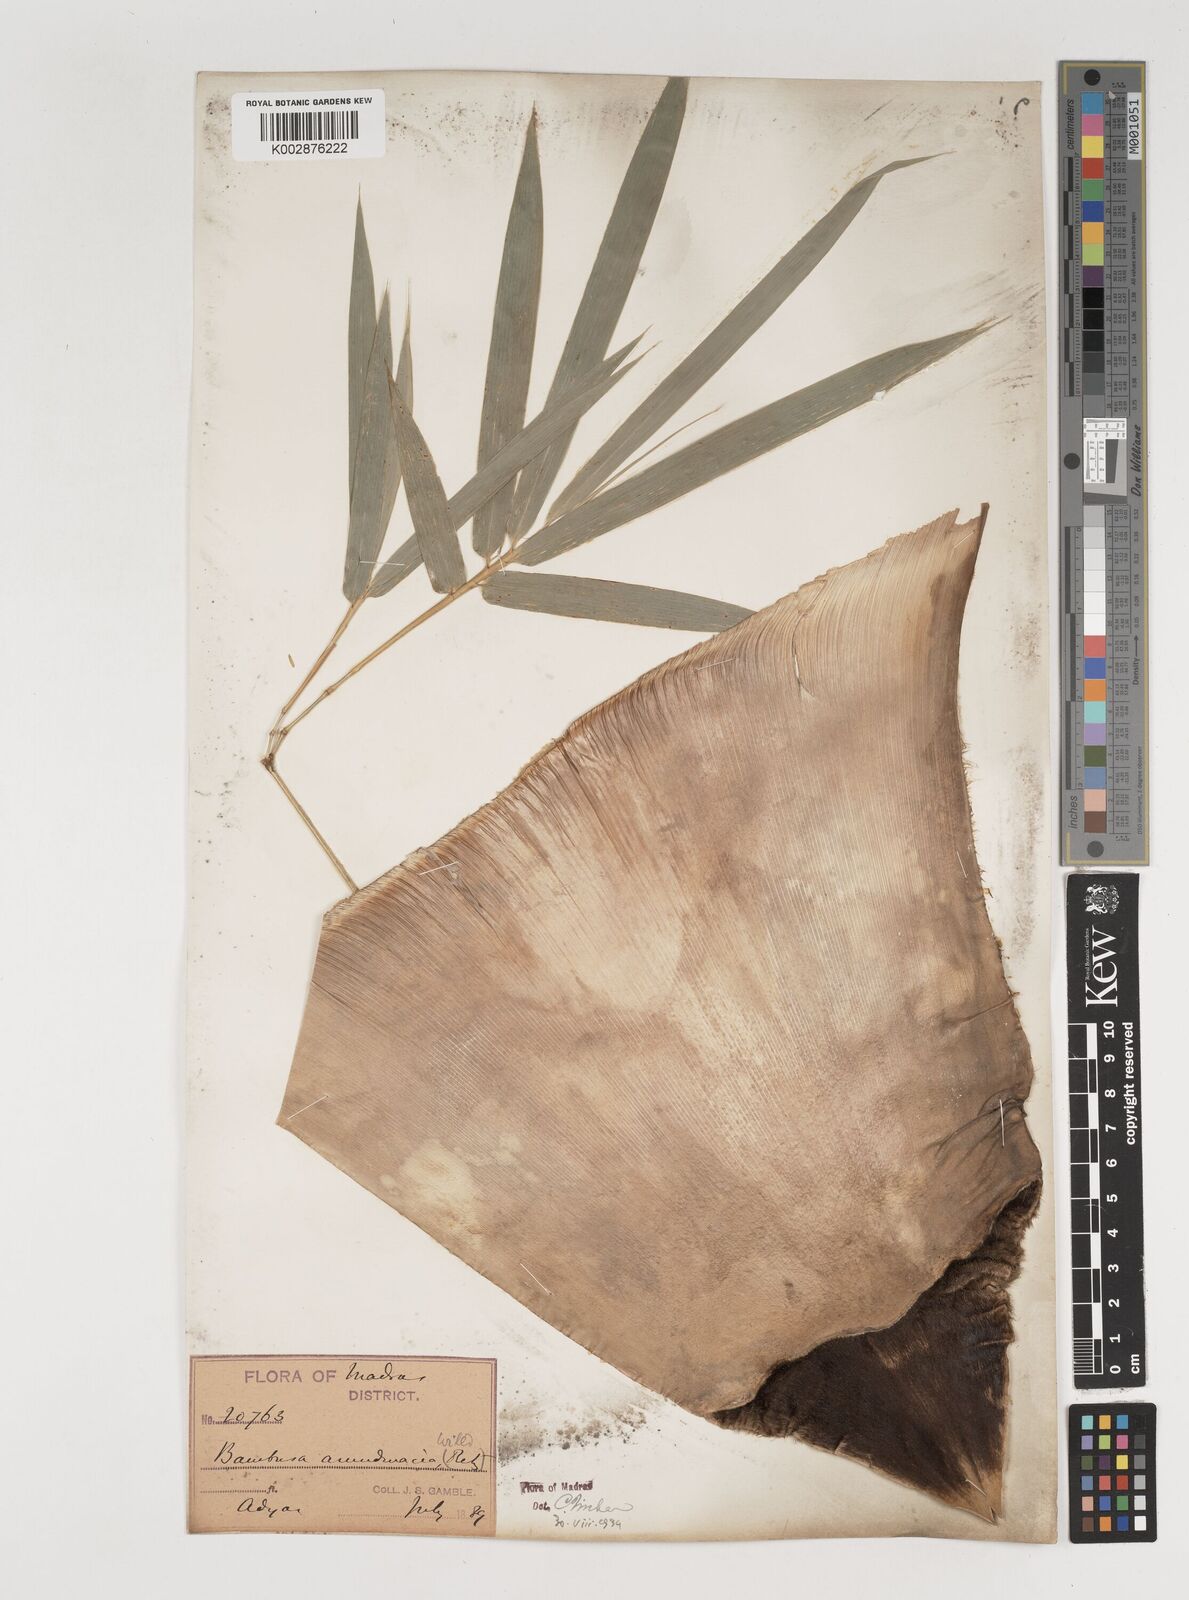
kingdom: Plantae
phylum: Tracheophyta
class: Liliopsida
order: Poales
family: Poaceae
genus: Bambusa
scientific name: Bambusa bambos
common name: Indian thorny bamboo
